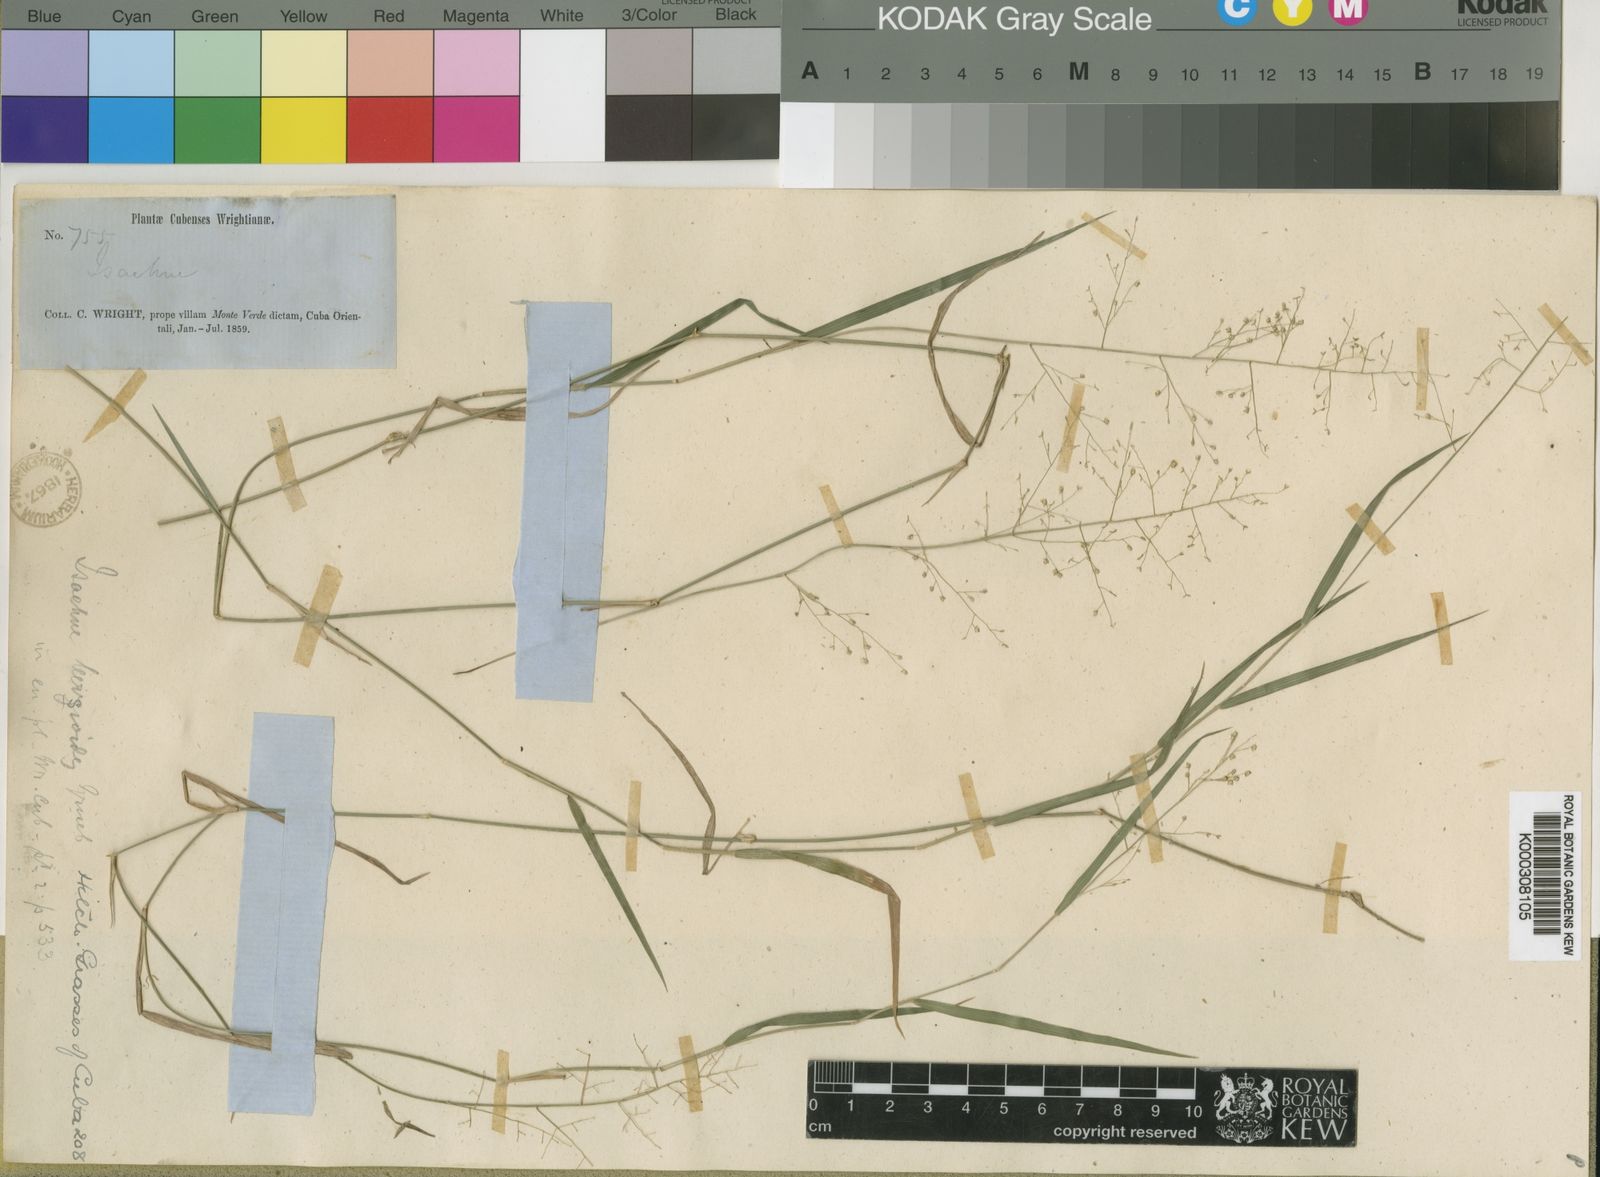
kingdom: Plantae
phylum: Tracheophyta
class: Liliopsida
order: Poales
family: Poaceae
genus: Isachne
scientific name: Isachne leersioides
